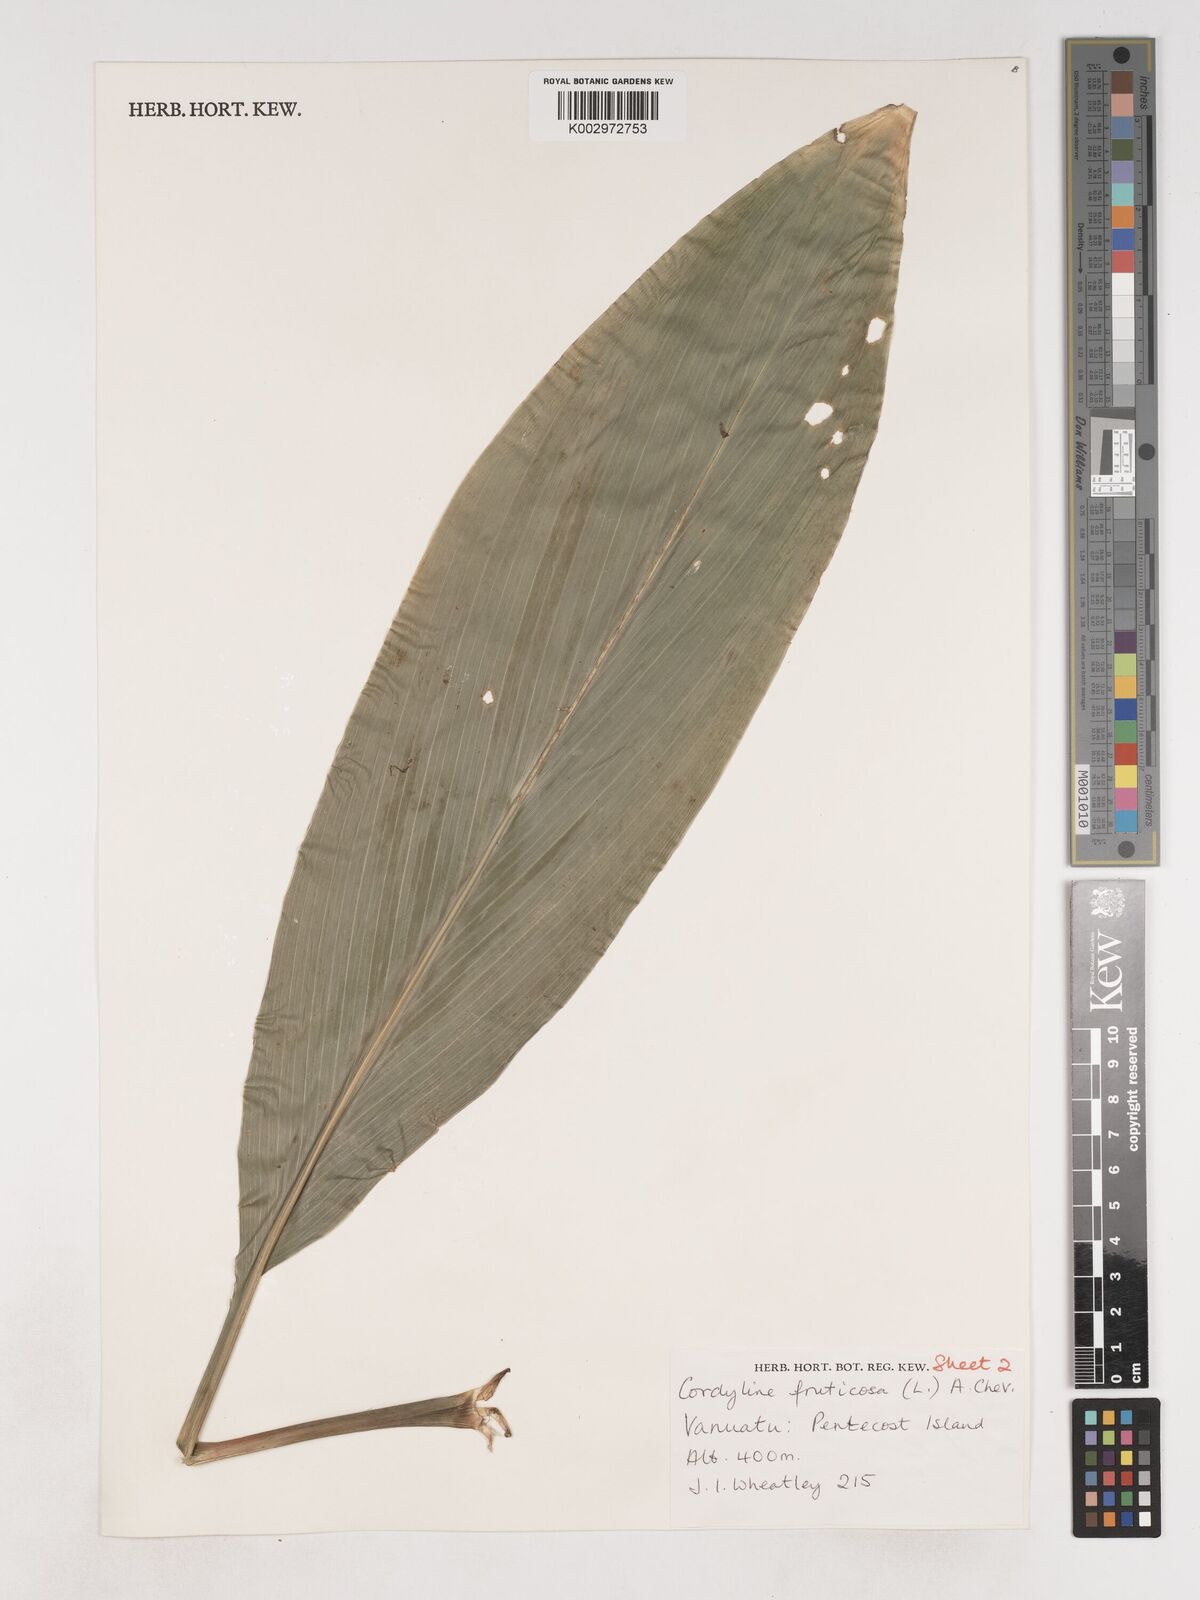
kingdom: Plantae
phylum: Tracheophyta
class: Liliopsida
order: Asparagales
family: Asparagaceae
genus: Cordyline
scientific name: Cordyline fruticosa
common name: Good-luck-plant
